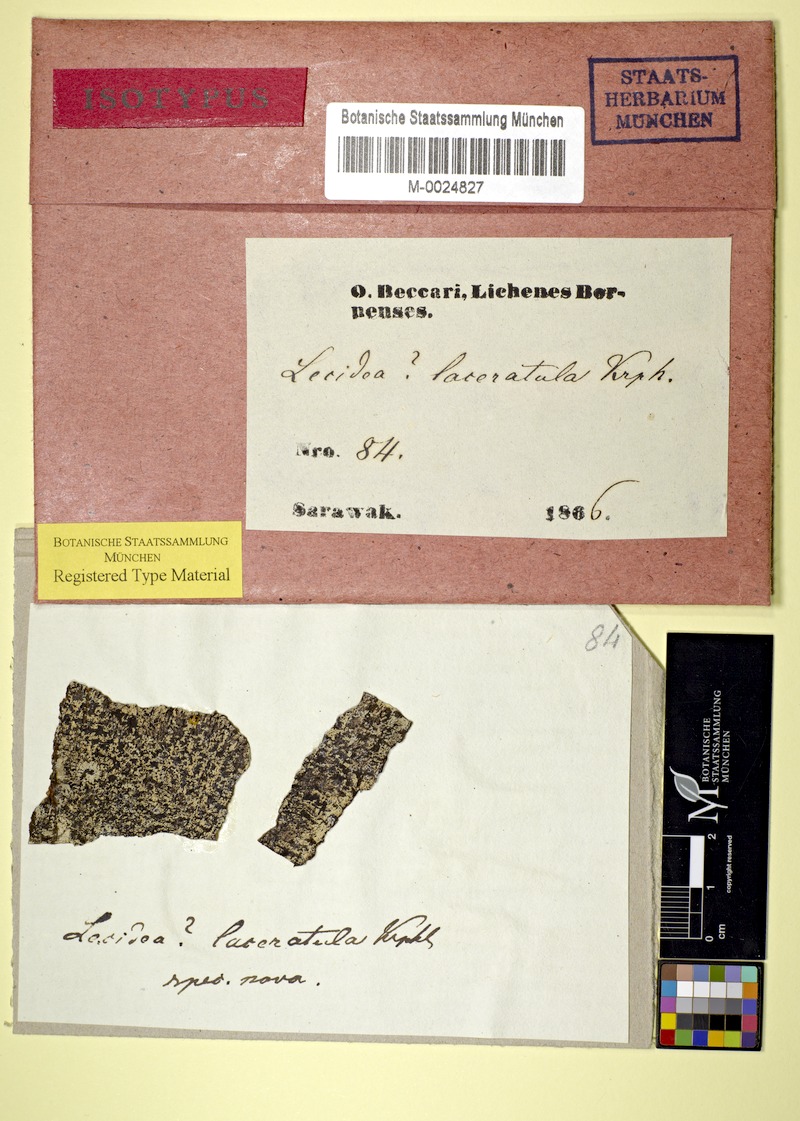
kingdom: Fungi
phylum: Ascomycota
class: Lecanoromycetes
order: Lecideales
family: Lecideaceae
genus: Lecidea
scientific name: Lecidea
